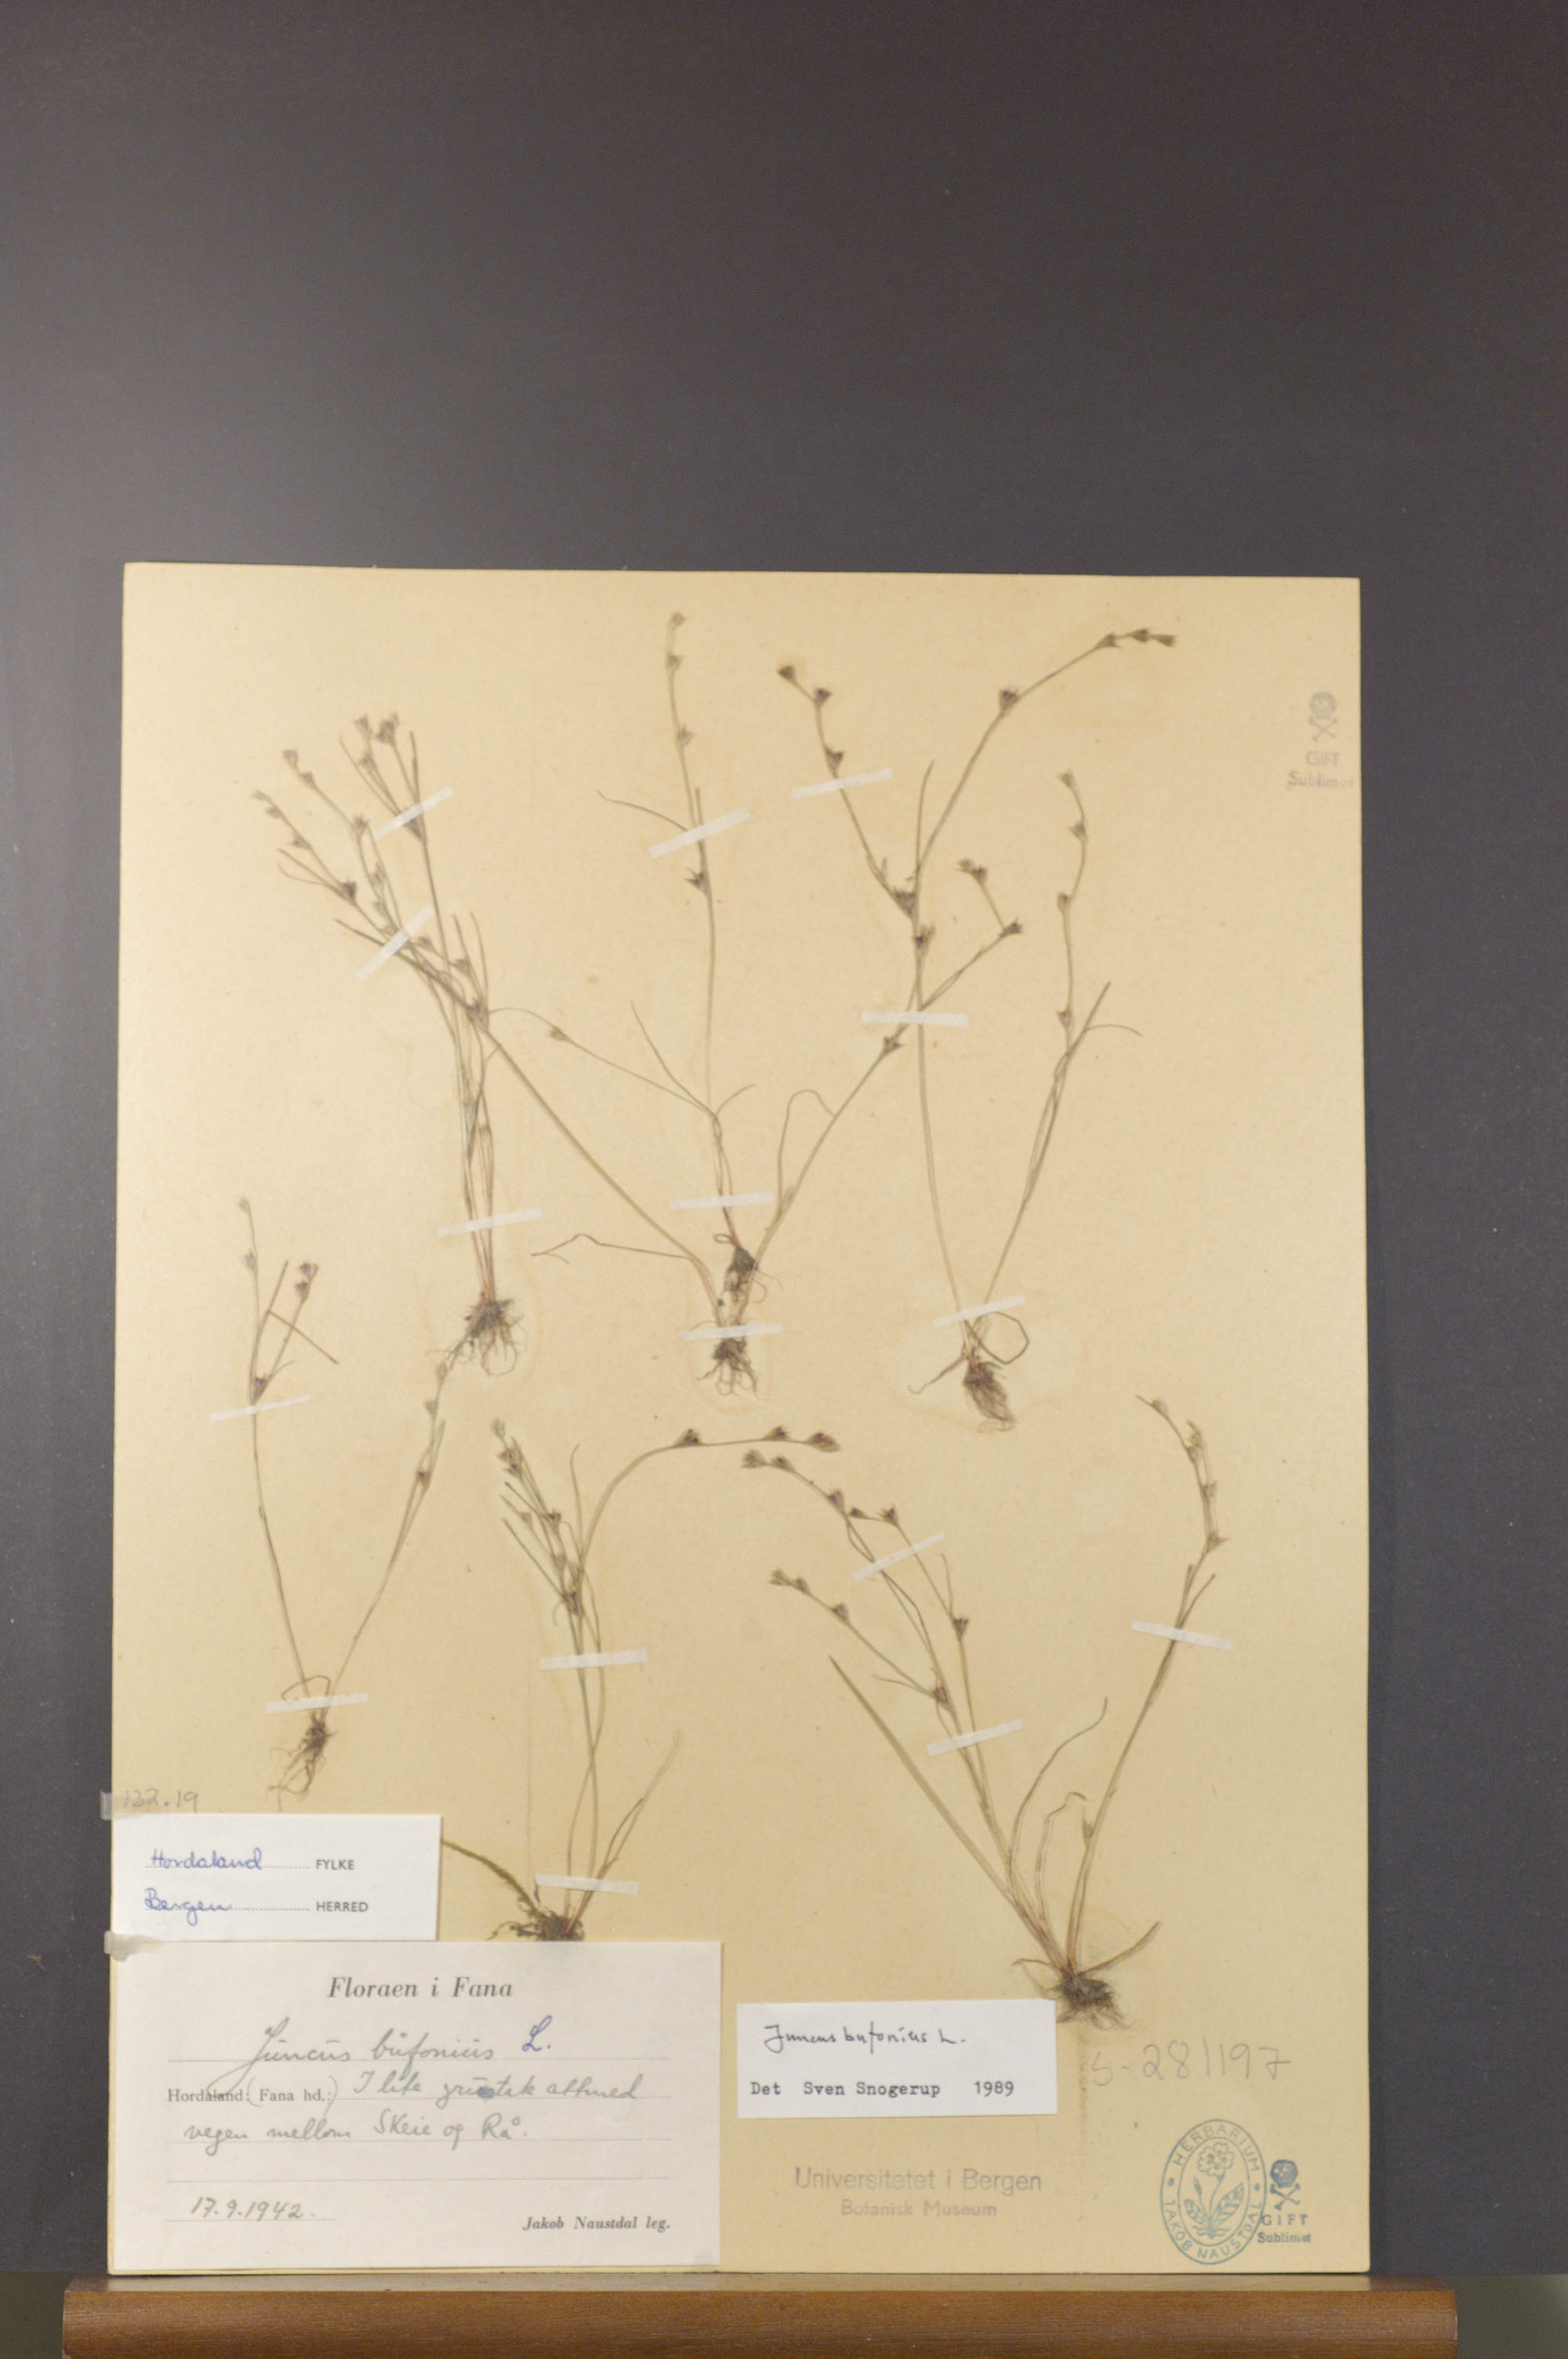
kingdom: Plantae
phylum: Tracheophyta
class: Liliopsida
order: Poales
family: Juncaceae
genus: Juncus
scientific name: Juncus bufonius
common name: Toad rush
